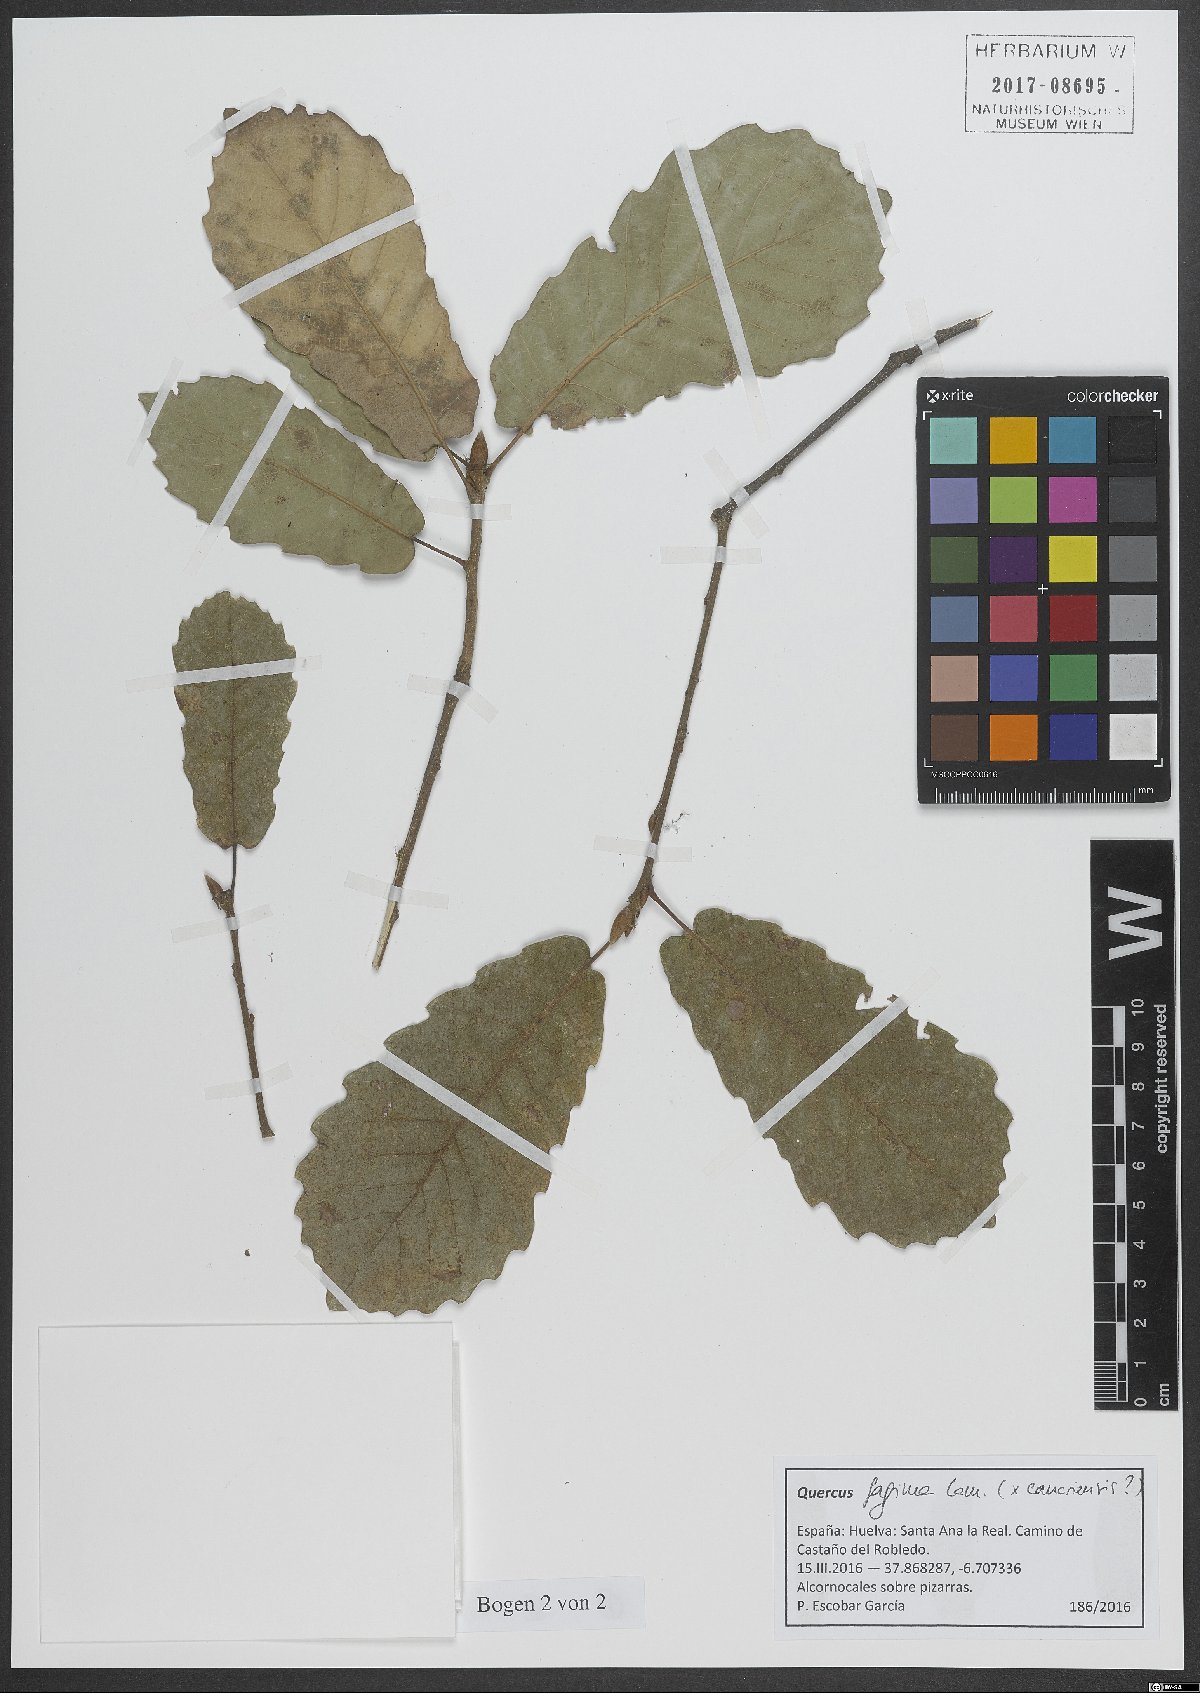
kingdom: Plantae
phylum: Tracheophyta
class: Magnoliopsida
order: Fagales
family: Fagaceae
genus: Quercus
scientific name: Quercus faginea
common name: Gall oak tree
